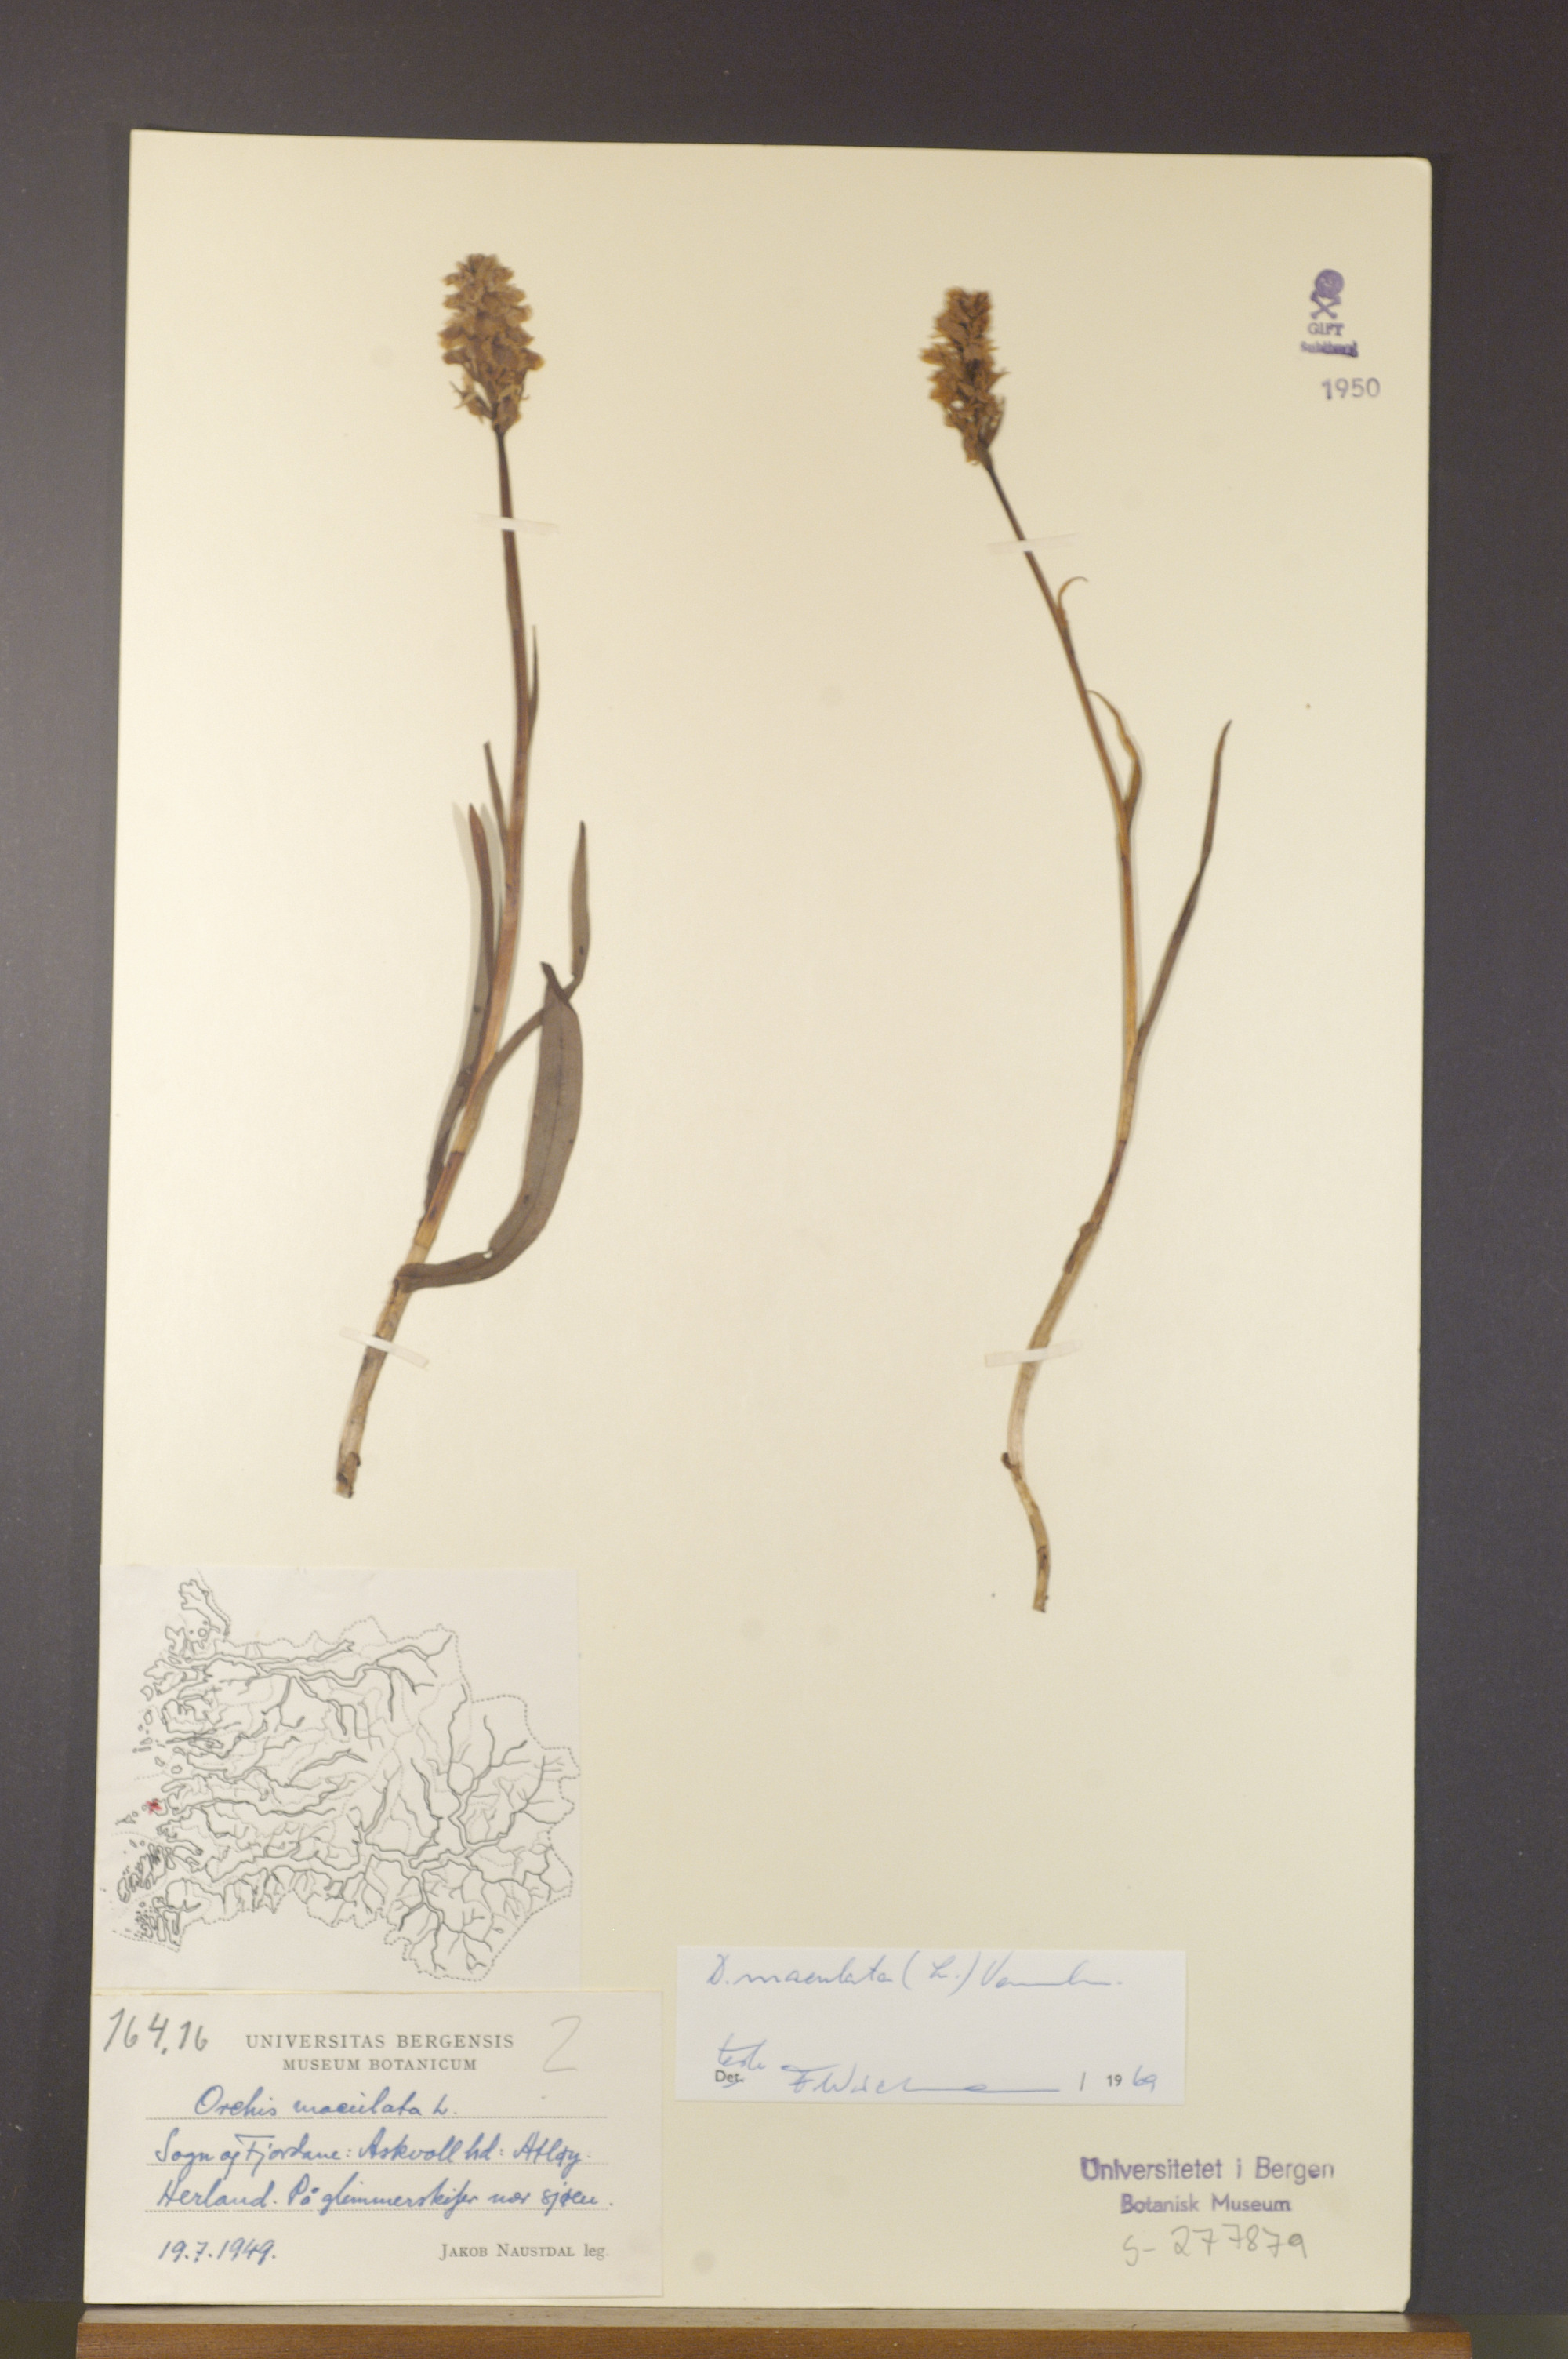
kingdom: Plantae
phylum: Tracheophyta
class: Liliopsida
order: Asparagales
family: Orchidaceae
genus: Dactylorhiza
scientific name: Dactylorhiza maculata
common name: Heath spotted-orchid
